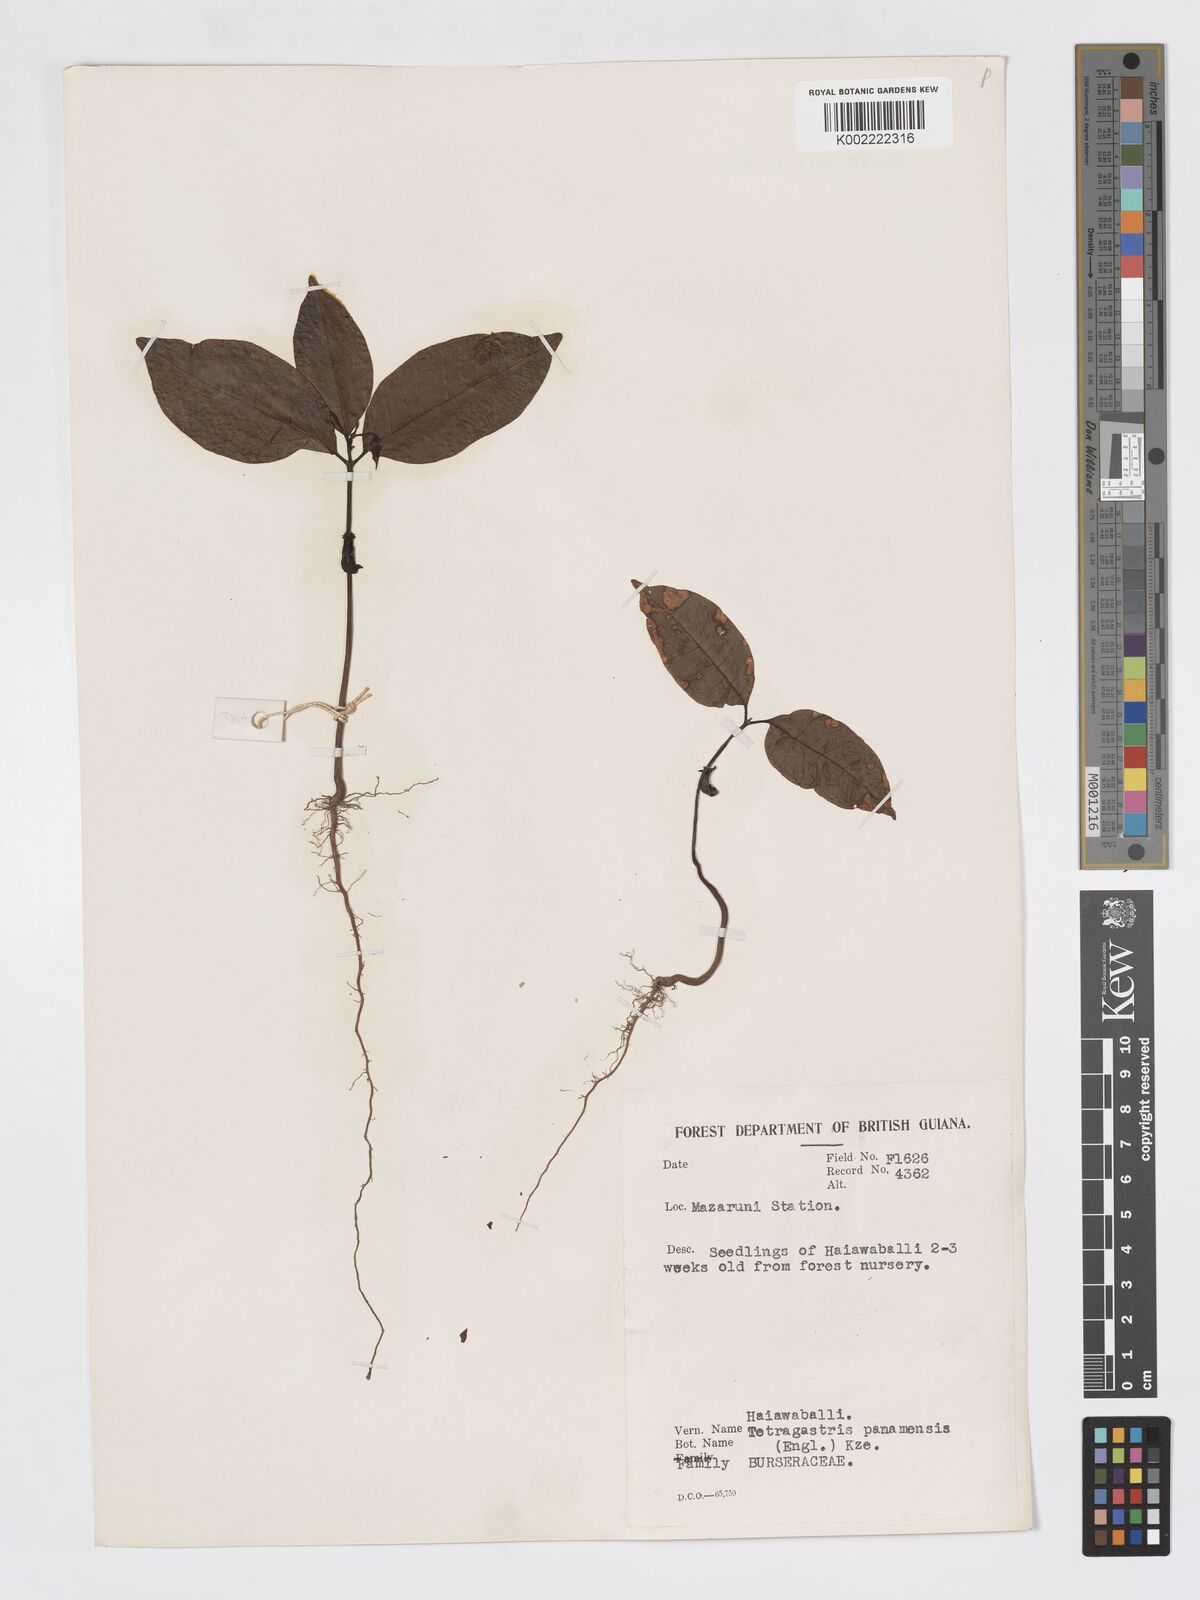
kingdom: Plantae
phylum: Tracheophyta
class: Magnoliopsida
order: Sapindales
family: Burseraceae
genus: Tetragastris
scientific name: Tetragastris panamensis
